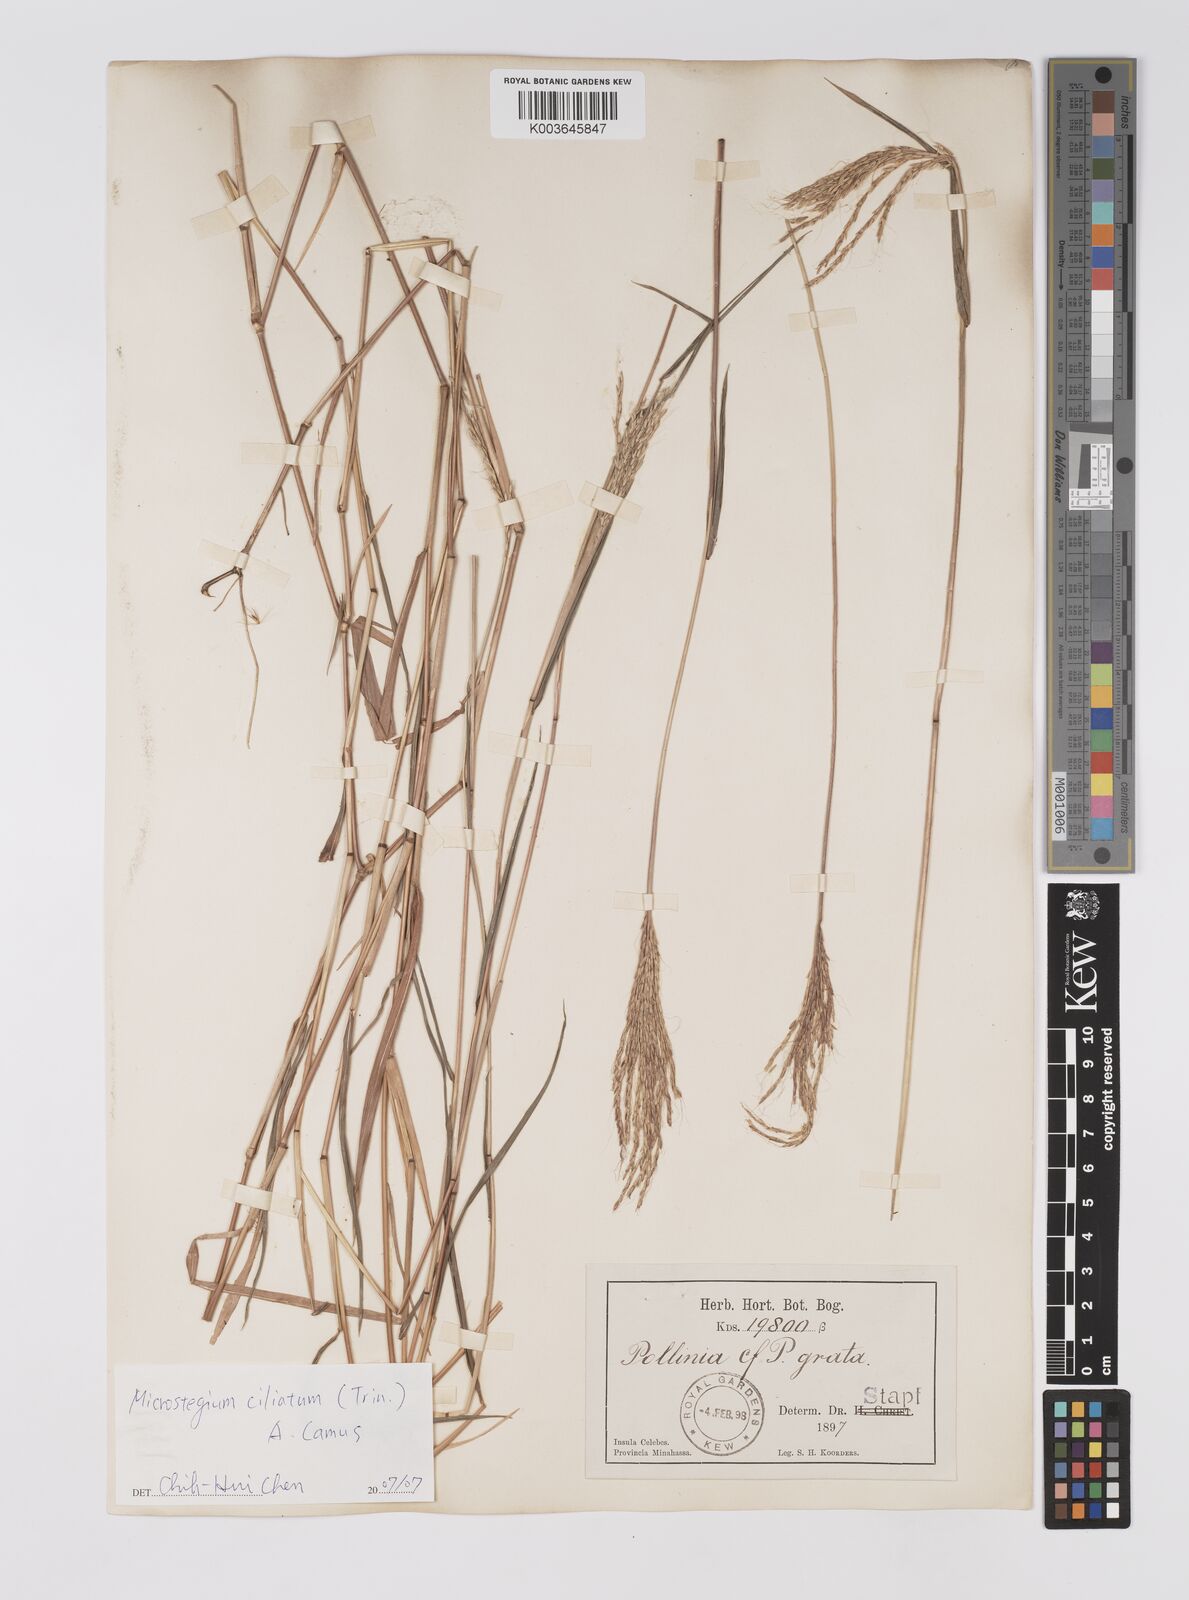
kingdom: Plantae
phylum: Tracheophyta
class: Liliopsida
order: Poales
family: Poaceae
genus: Microstegium
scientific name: Microstegium fasciculatum
